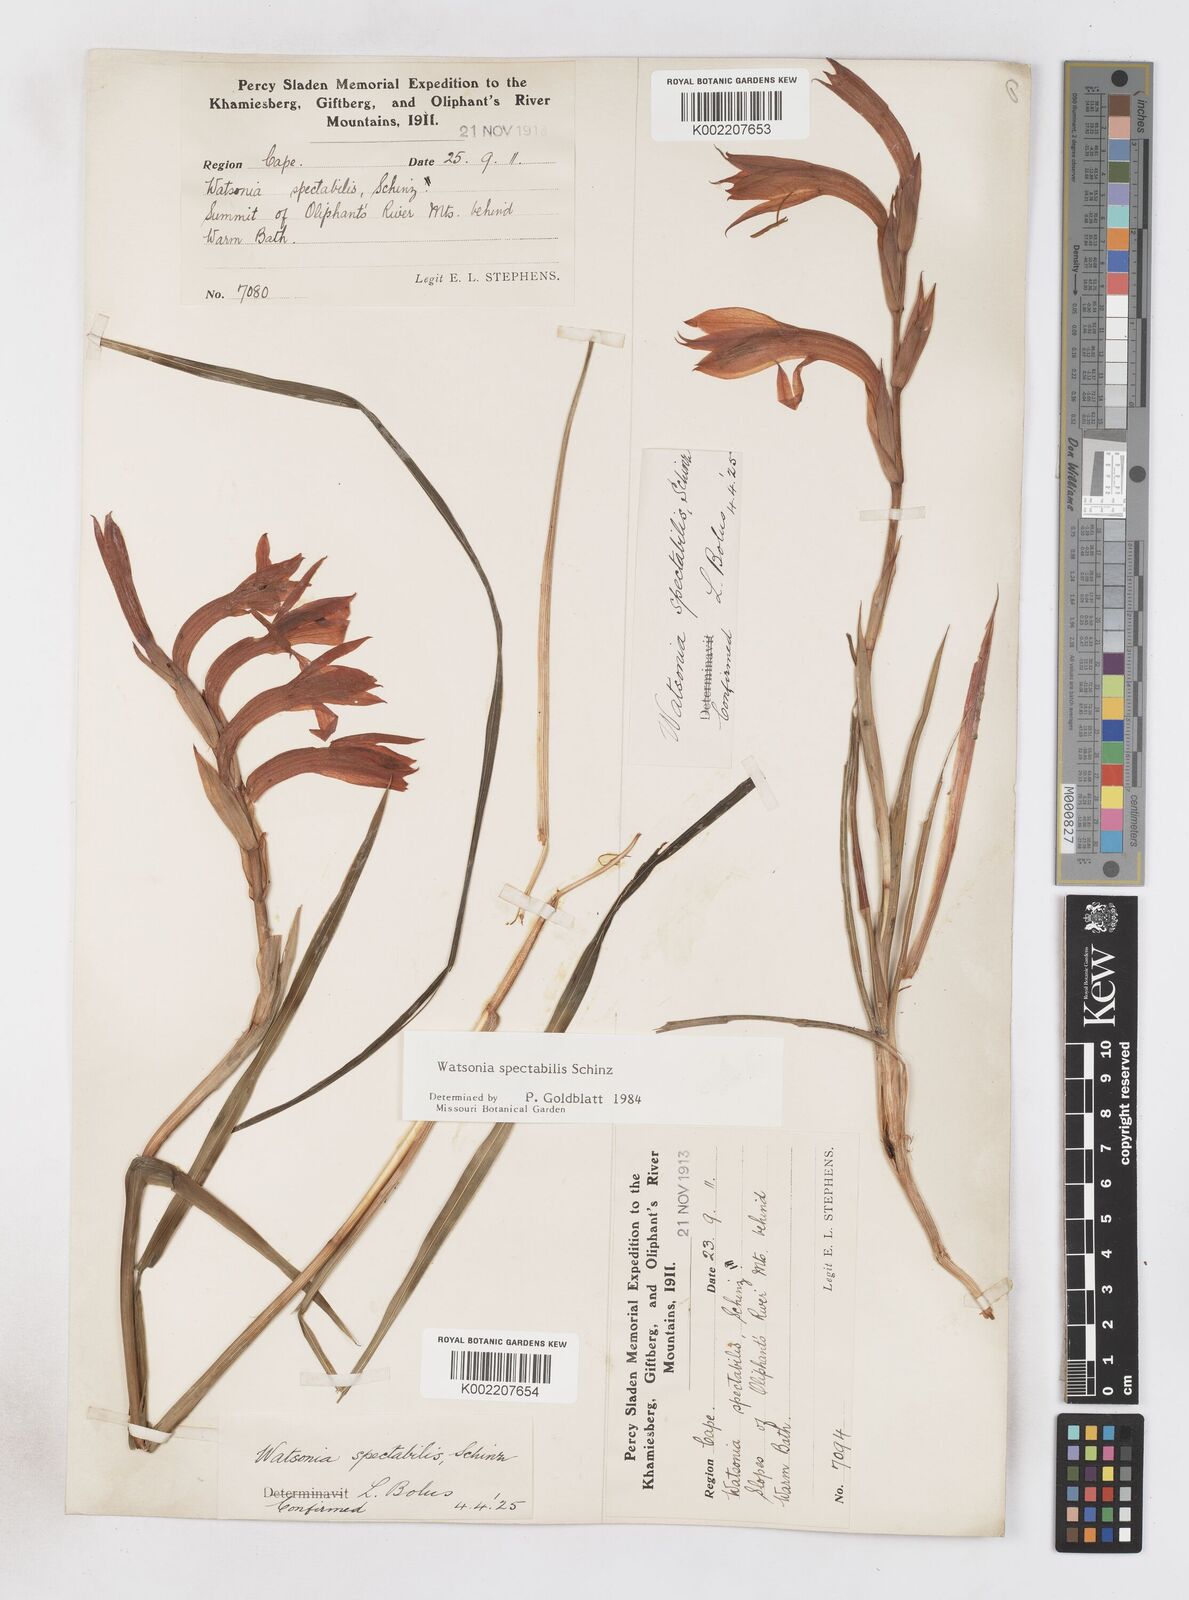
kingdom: Plantae
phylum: Tracheophyta
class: Liliopsida
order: Asparagales
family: Iridaceae
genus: Watsonia
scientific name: Watsonia spectabilis
